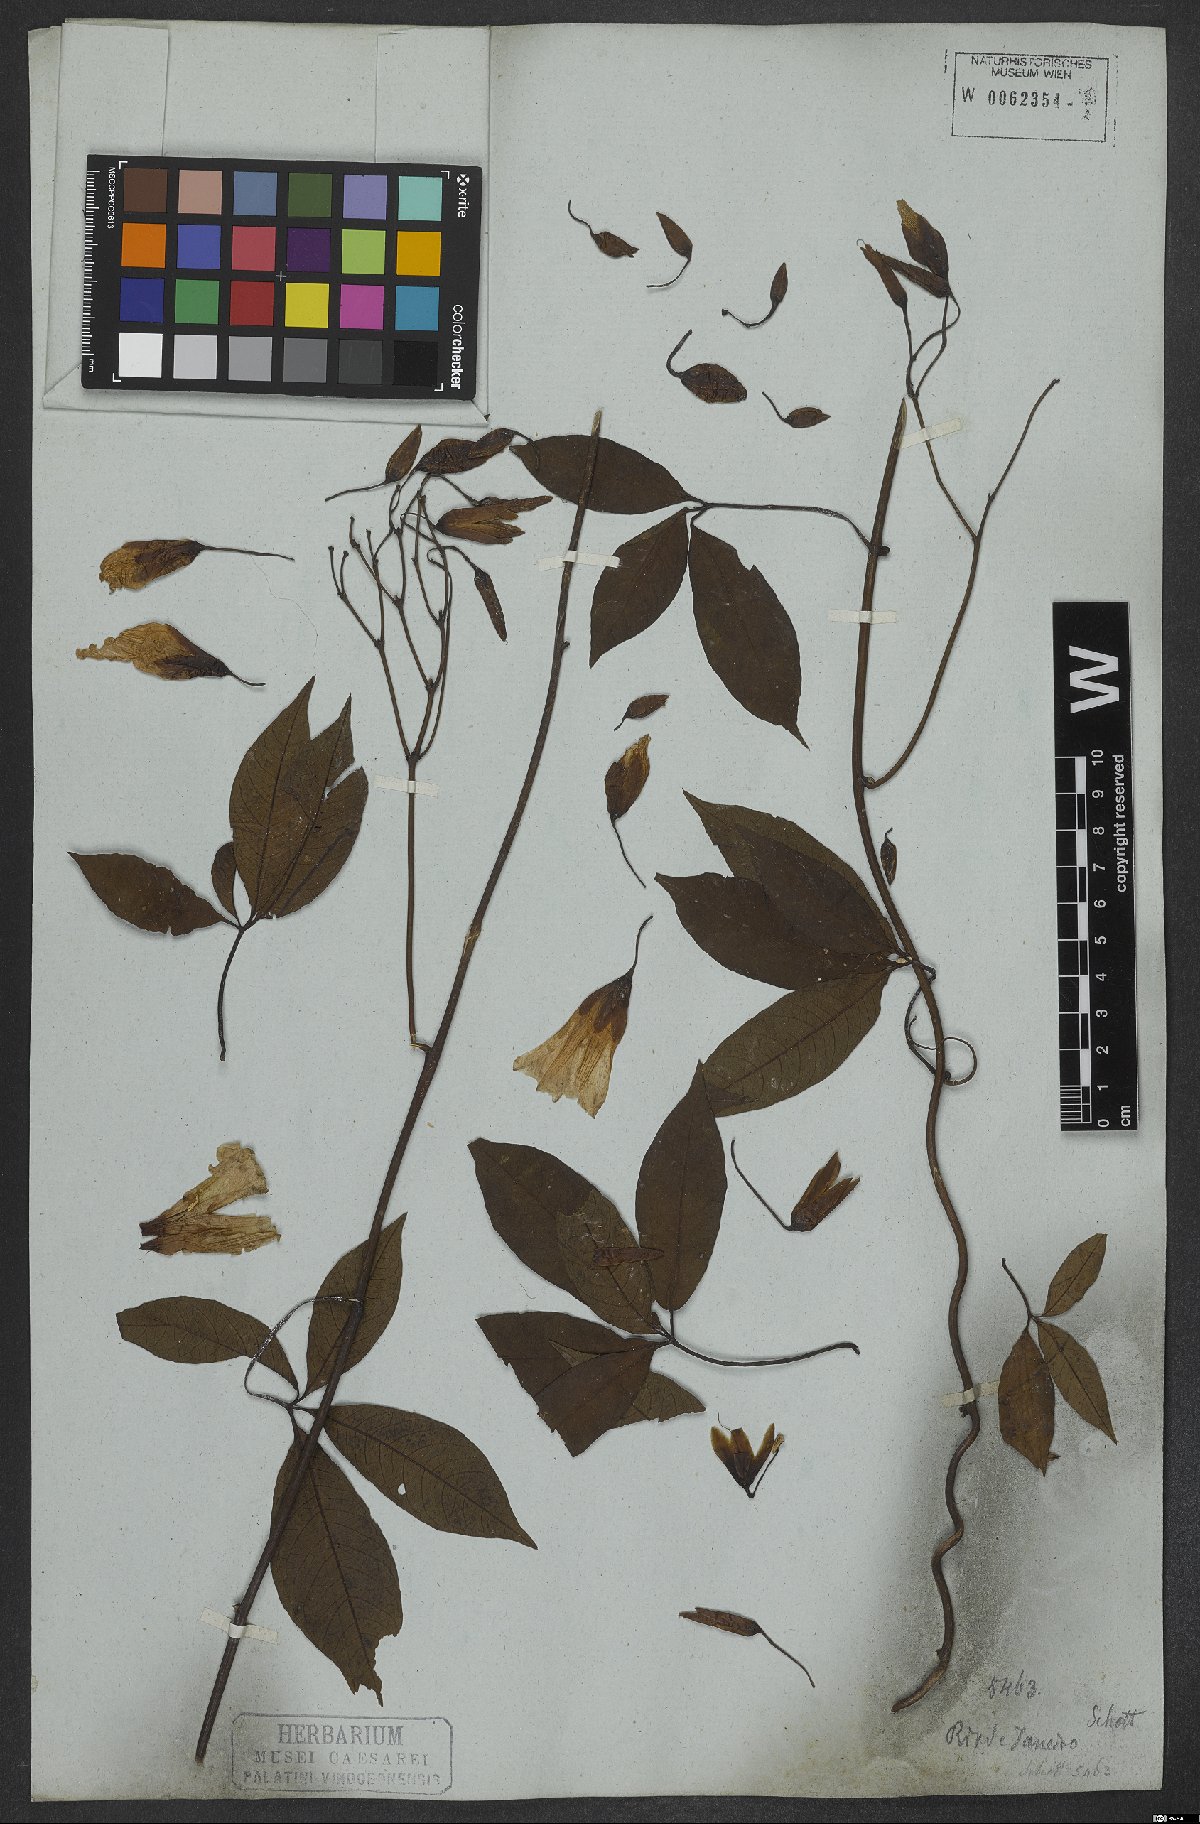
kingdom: Plantae
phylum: Tracheophyta
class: Magnoliopsida
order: Solanales
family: Convolvulaceae
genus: Distimake
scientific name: Distimake macrocalyx
